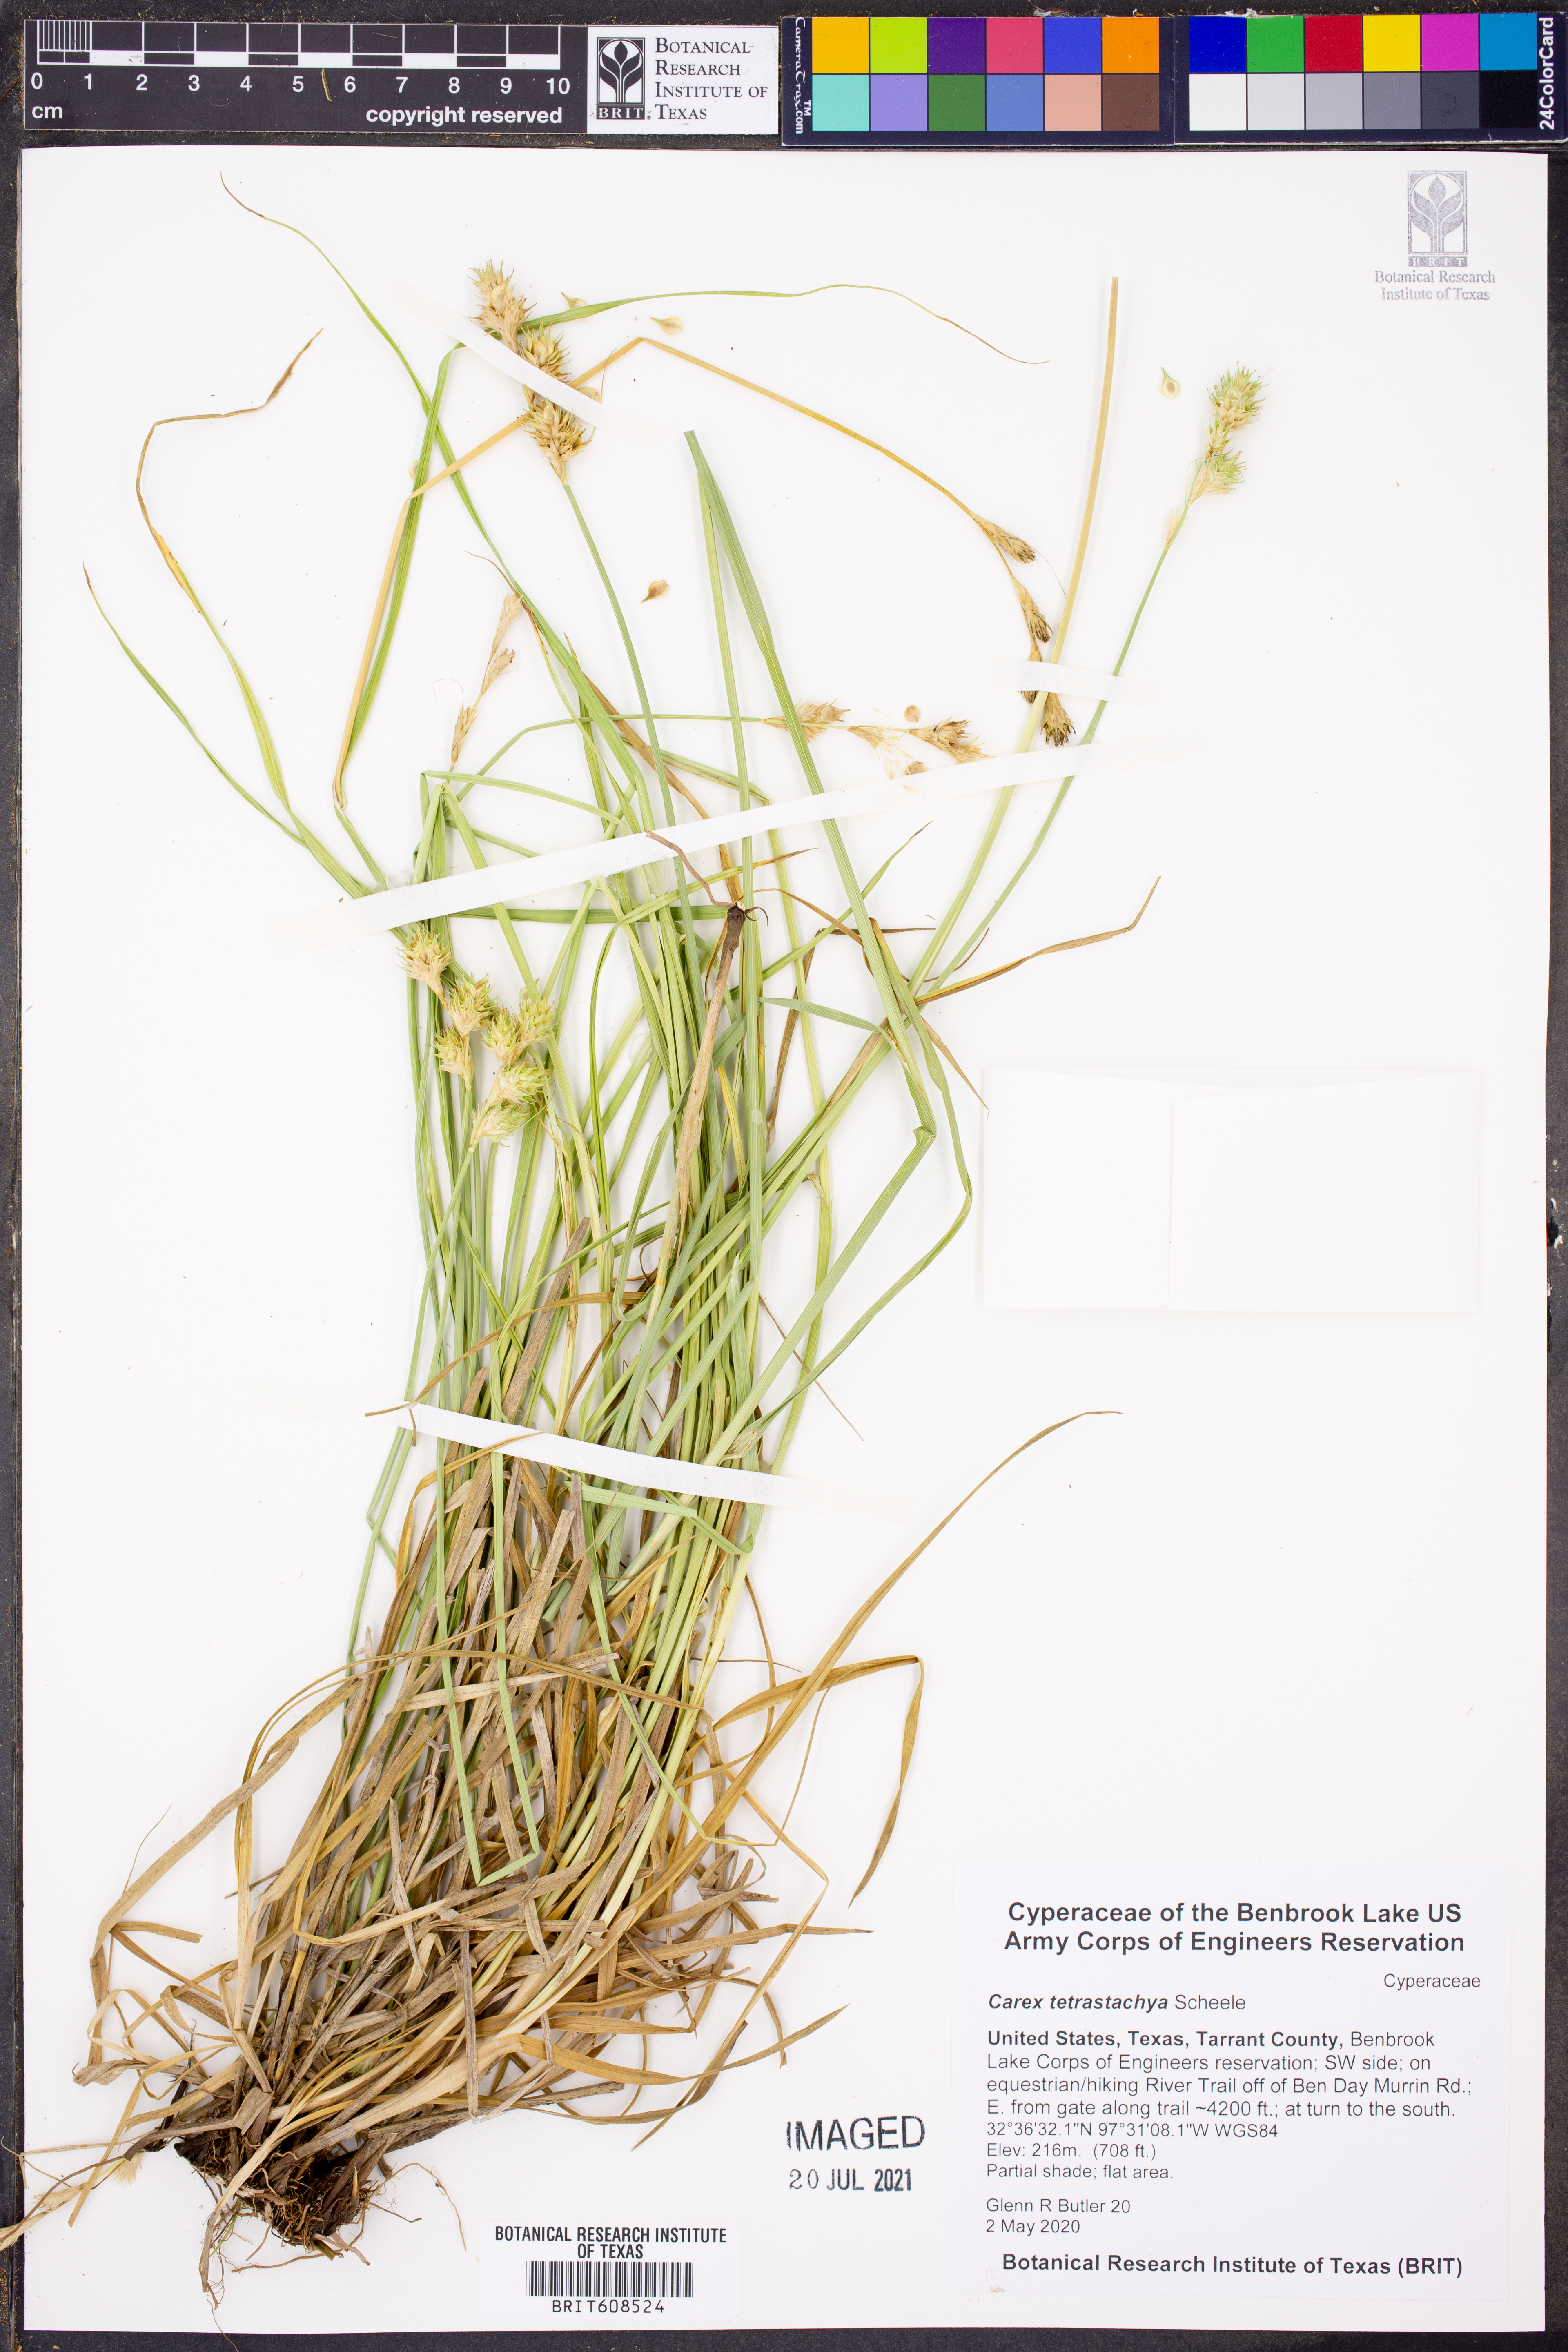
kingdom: Plantae
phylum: Tracheophyta
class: Liliopsida
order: Poales
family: Cyperaceae
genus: Carex
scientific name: Carex tetrastachya
